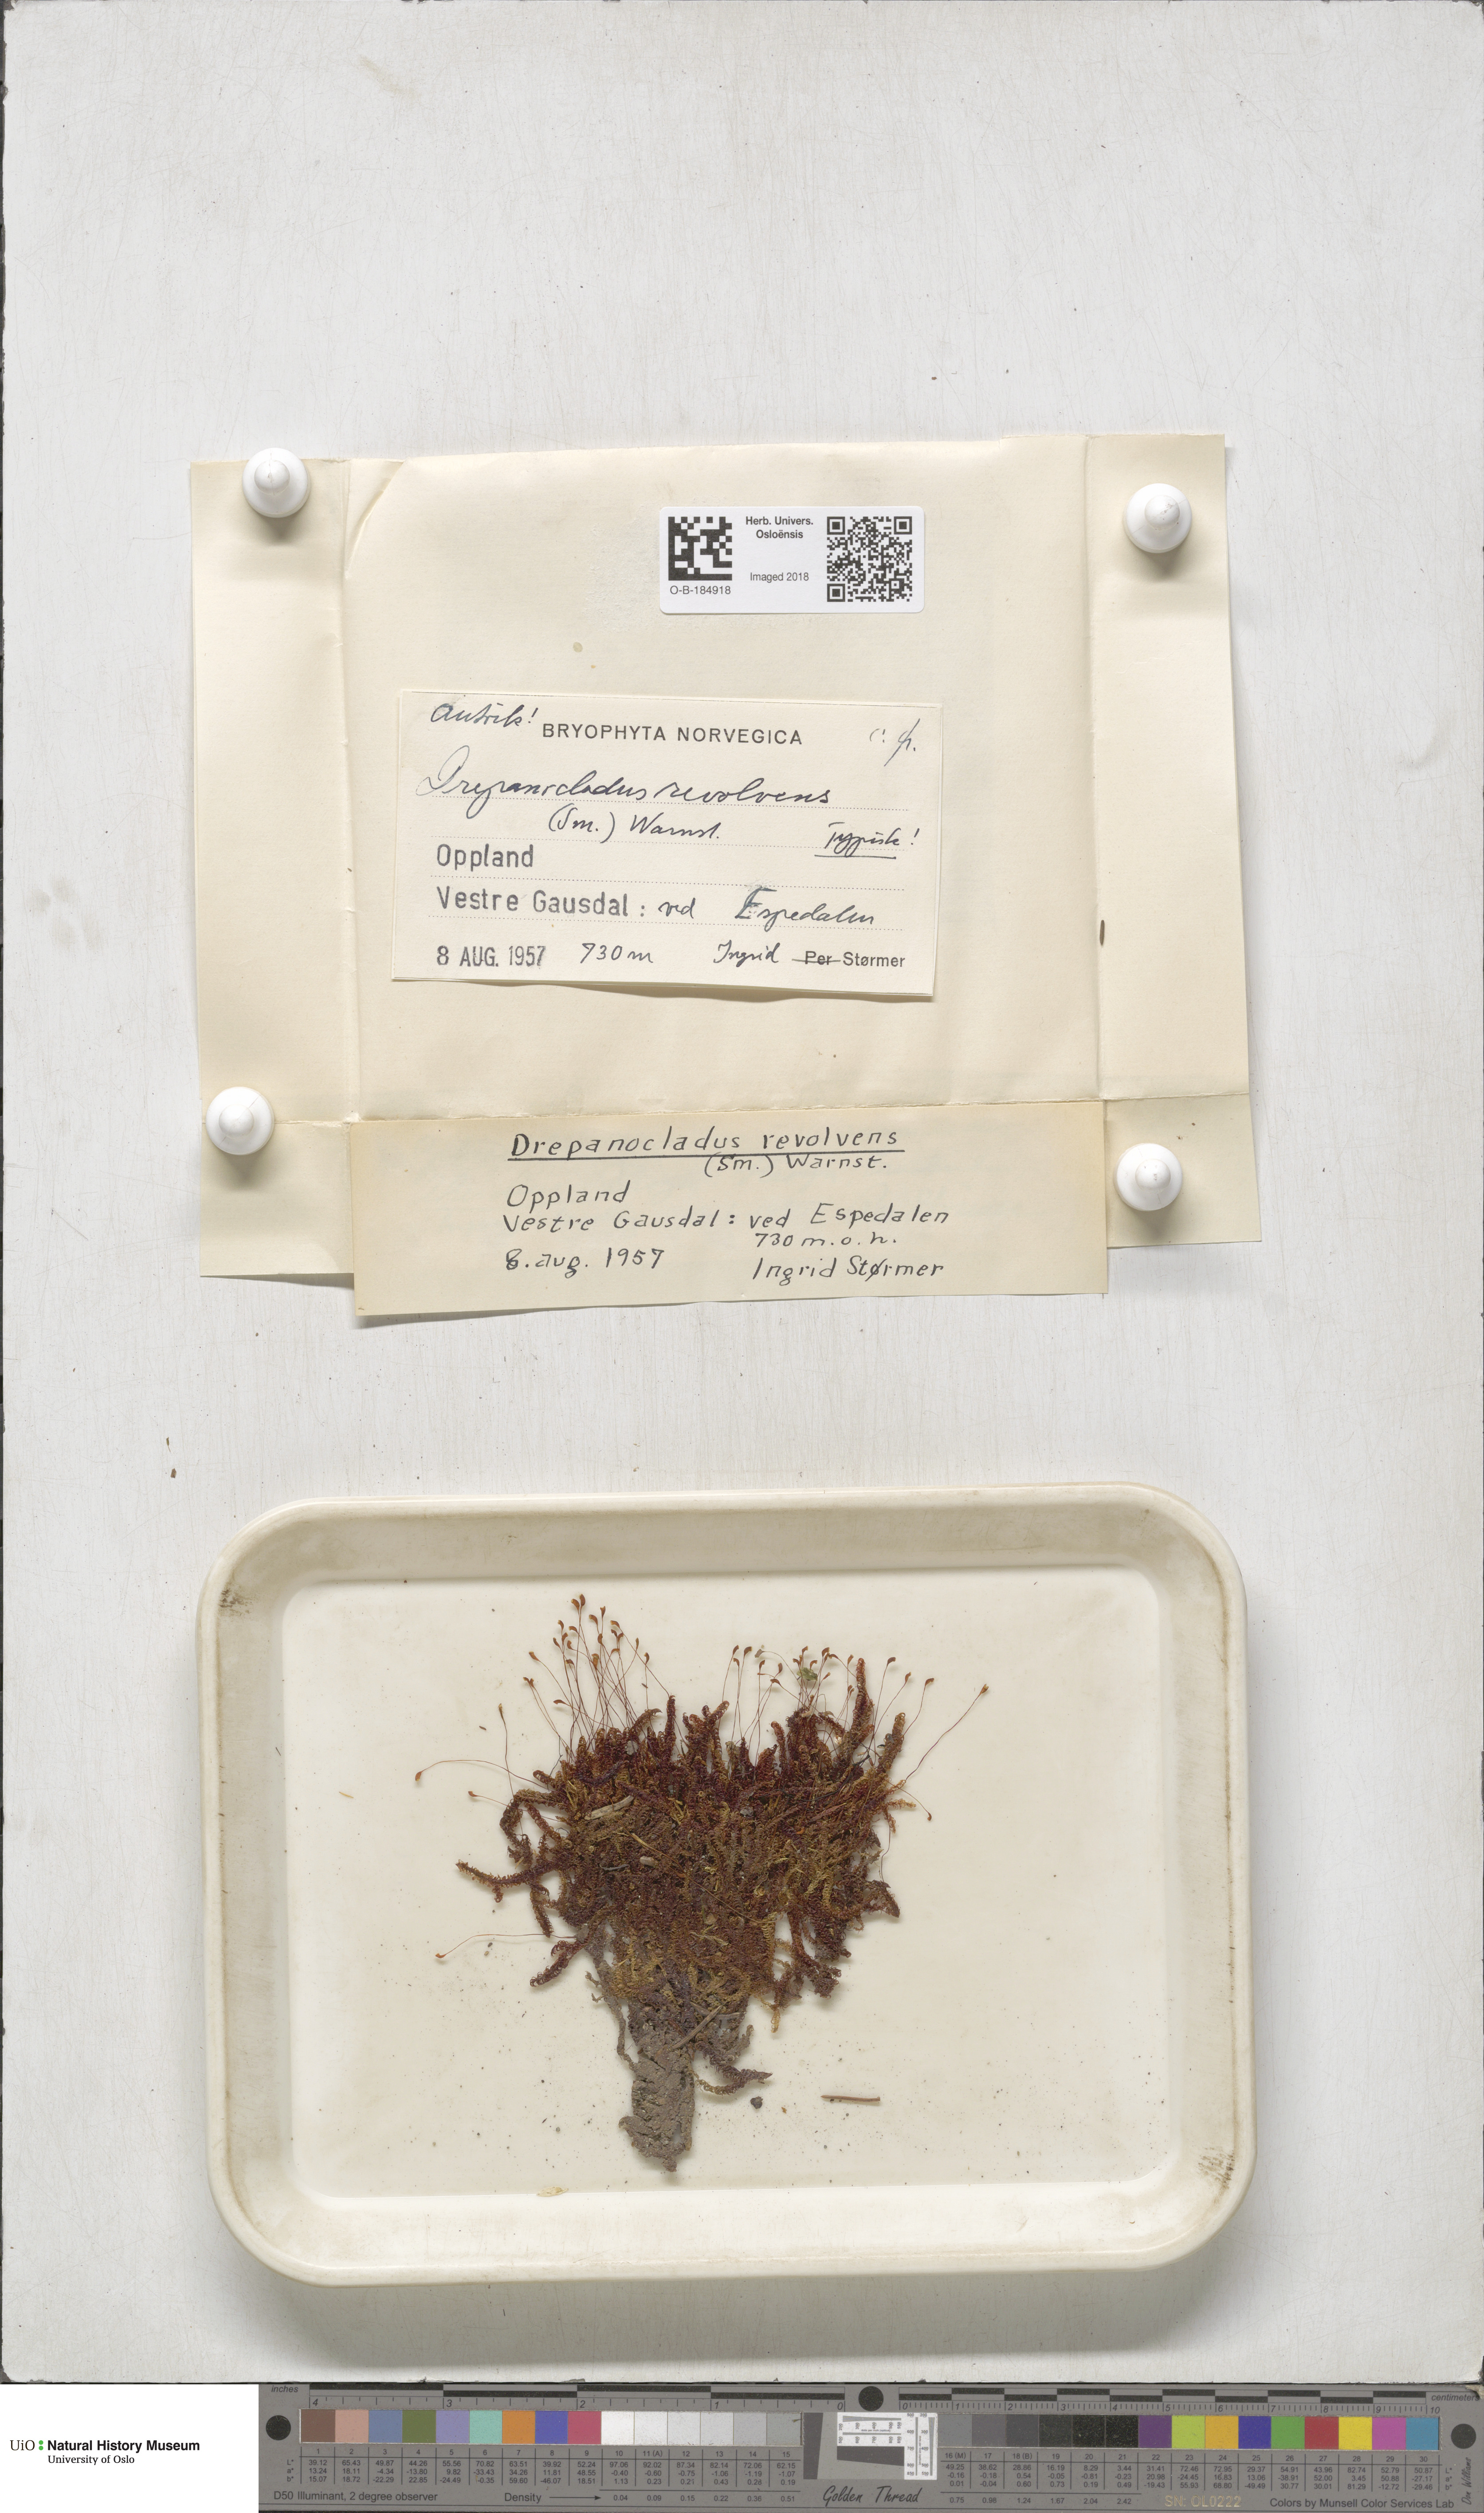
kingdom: Plantae
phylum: Bryophyta
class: Bryopsida
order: Hypnales
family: Scorpidiaceae
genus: Scorpidium
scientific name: Scorpidium revolvens
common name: Rusty hook moss
